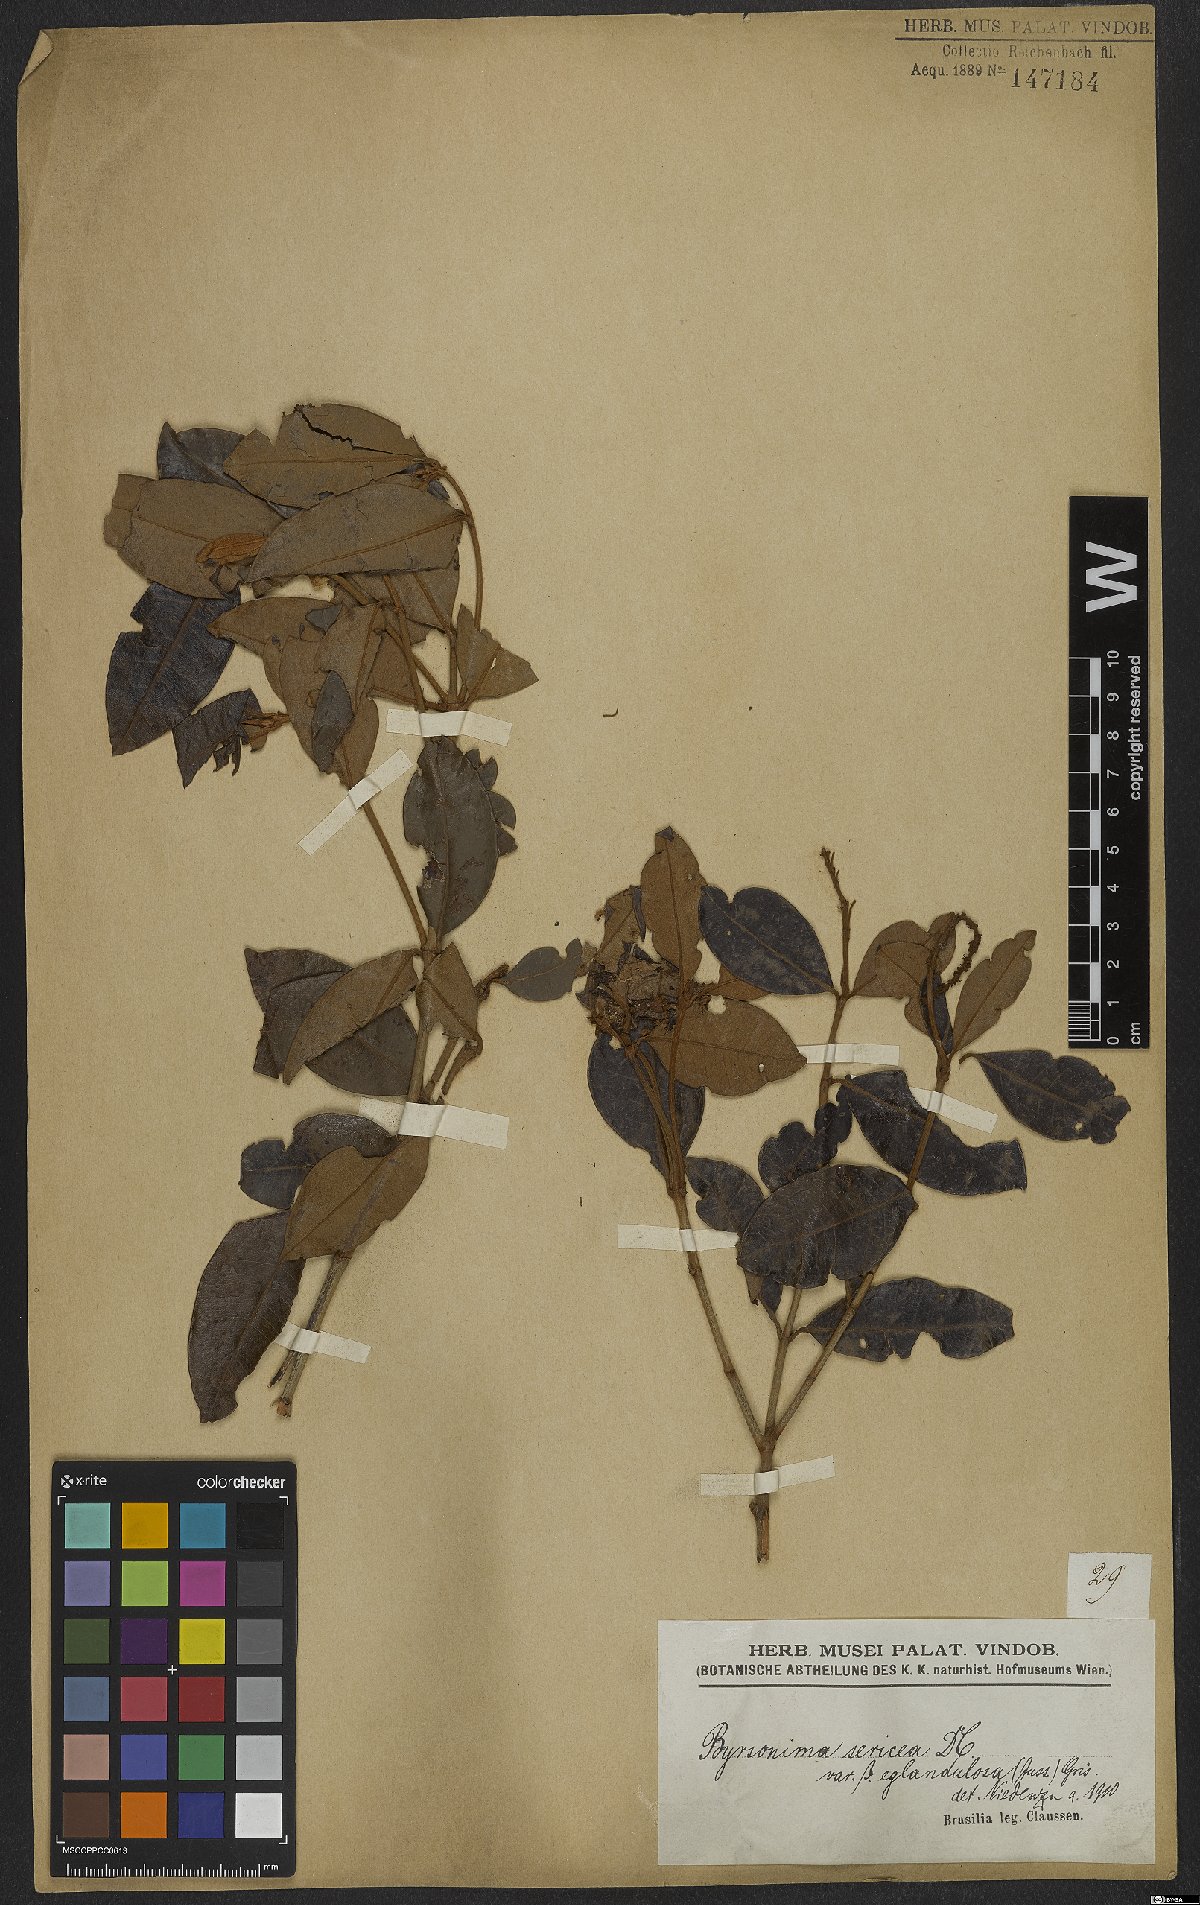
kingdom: Plantae
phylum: Tracheophyta
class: Magnoliopsida
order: Malpighiales
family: Malpighiaceae
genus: Byrsonima
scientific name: Byrsonima sericea
